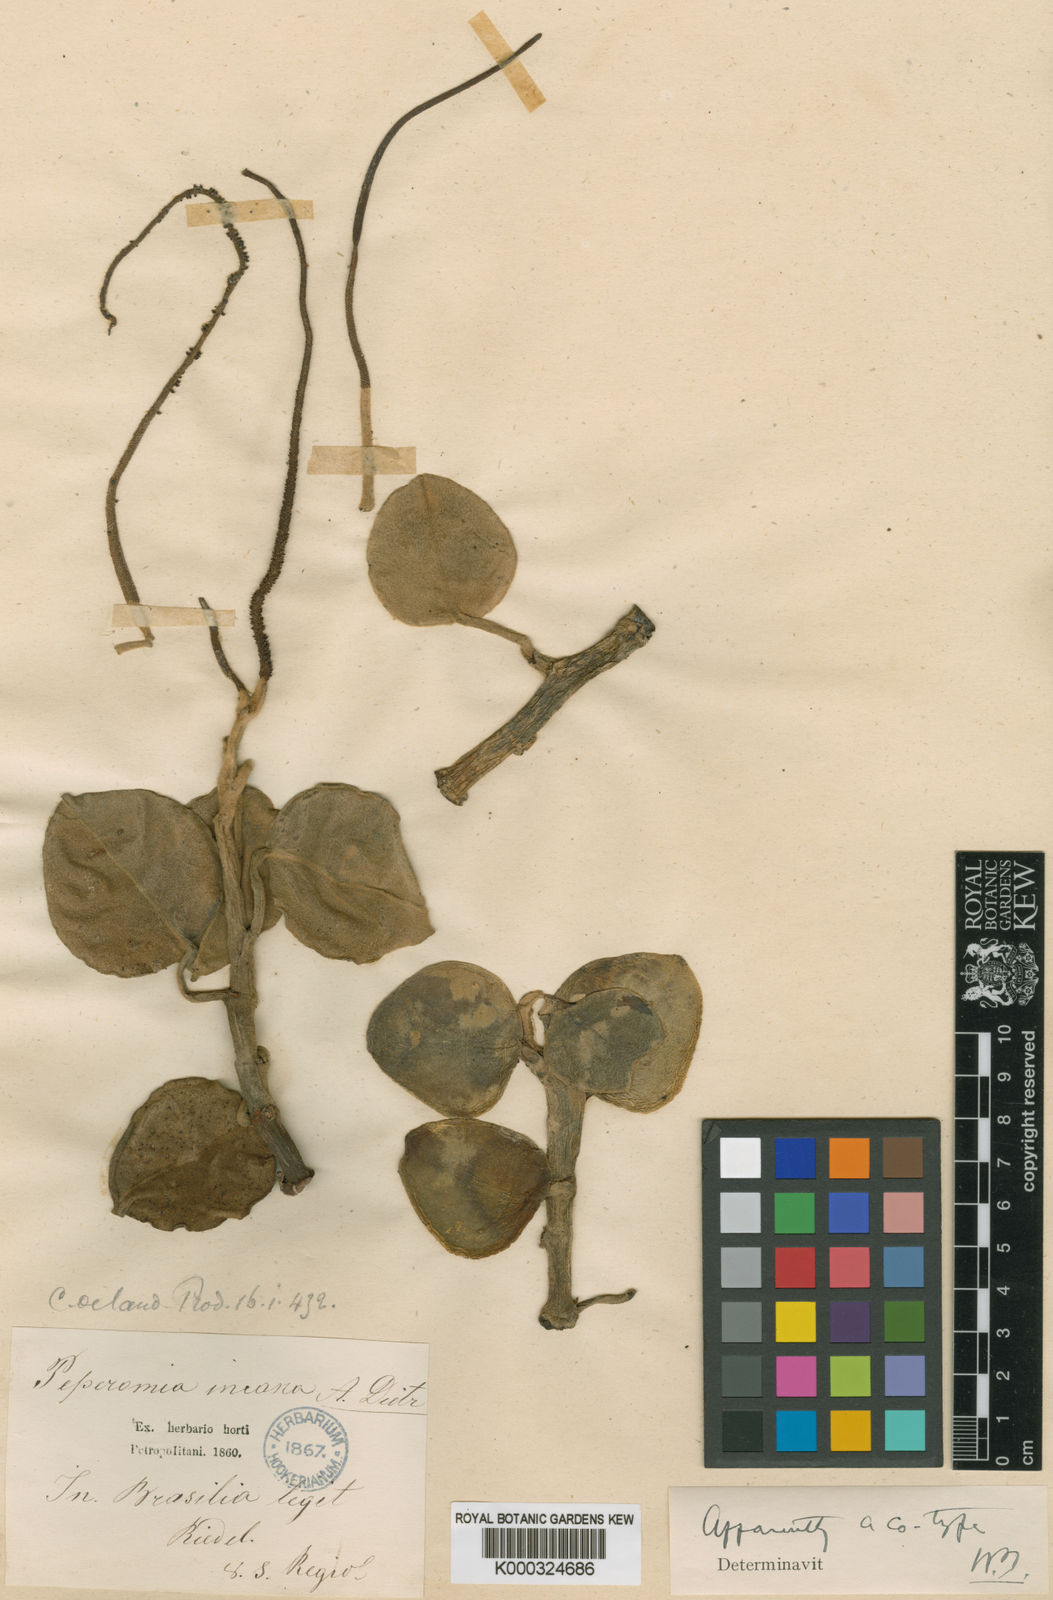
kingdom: Plantae
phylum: Tracheophyta
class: Magnoliopsida
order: Piperales
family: Piperaceae
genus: Peperomia
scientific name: Peperomia
